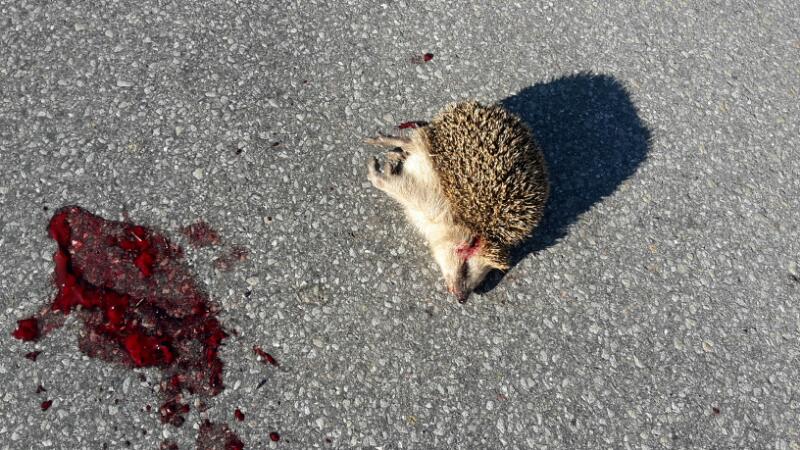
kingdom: Animalia
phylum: Chordata
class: Mammalia
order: Erinaceomorpha
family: Erinaceidae
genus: Erinaceus
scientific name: Erinaceus
